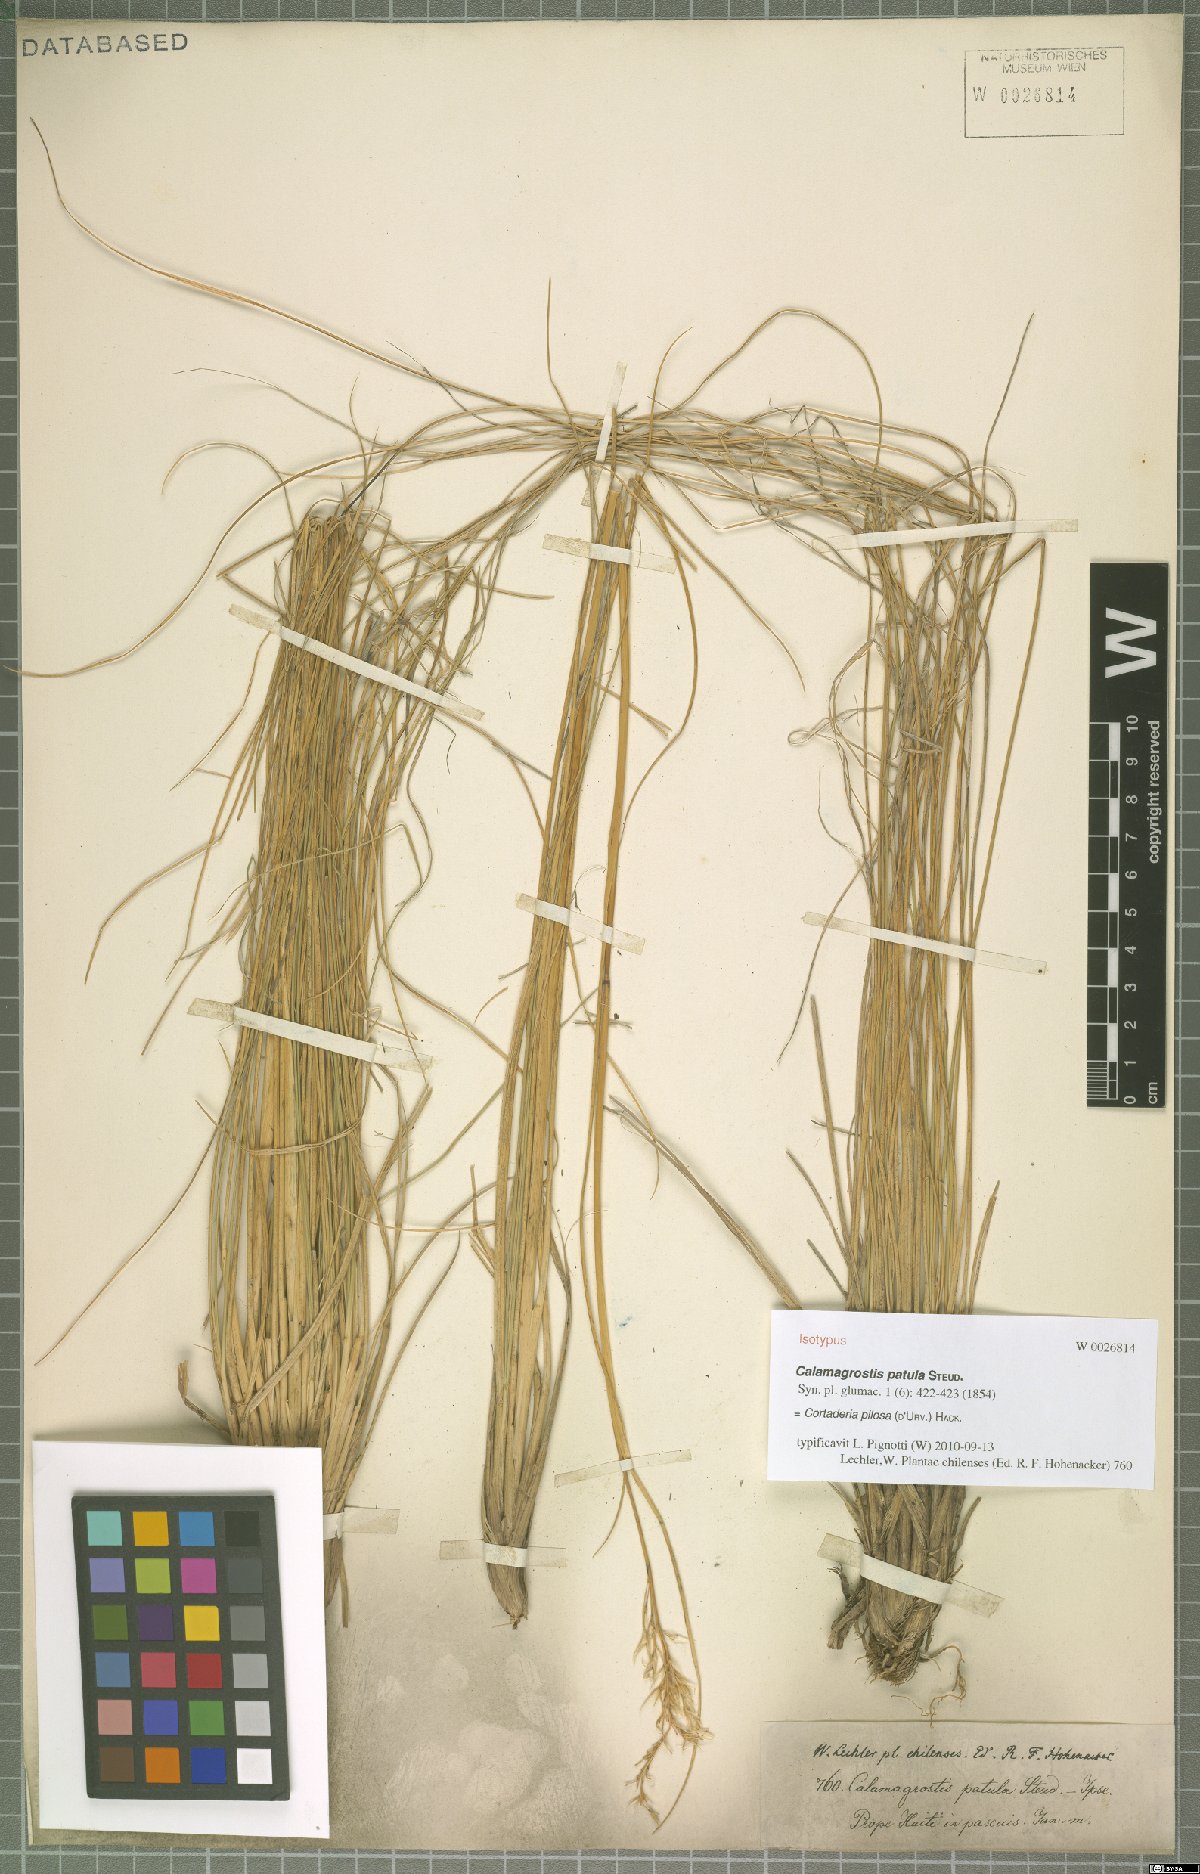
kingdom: Plantae
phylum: Tracheophyta
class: Liliopsida
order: Poales
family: Poaceae
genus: Cortaderia
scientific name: Cortaderia egmontiana
